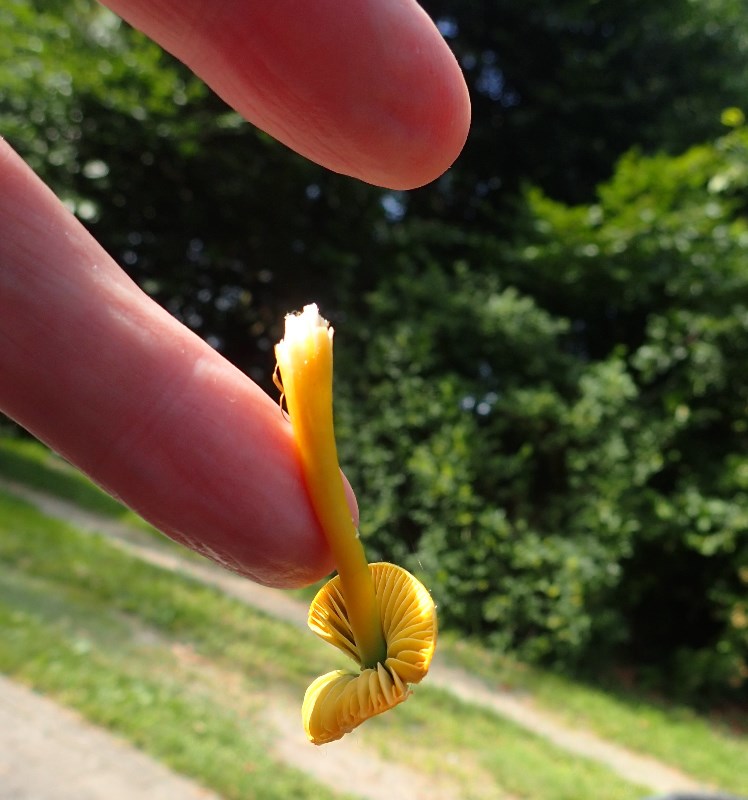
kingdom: Fungi
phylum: Basidiomycota
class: Agaricomycetes
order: Agaricales
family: Hygrophoraceae
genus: Gliophorus
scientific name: Gliophorus psittacinus
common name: papegøje-vokshat
